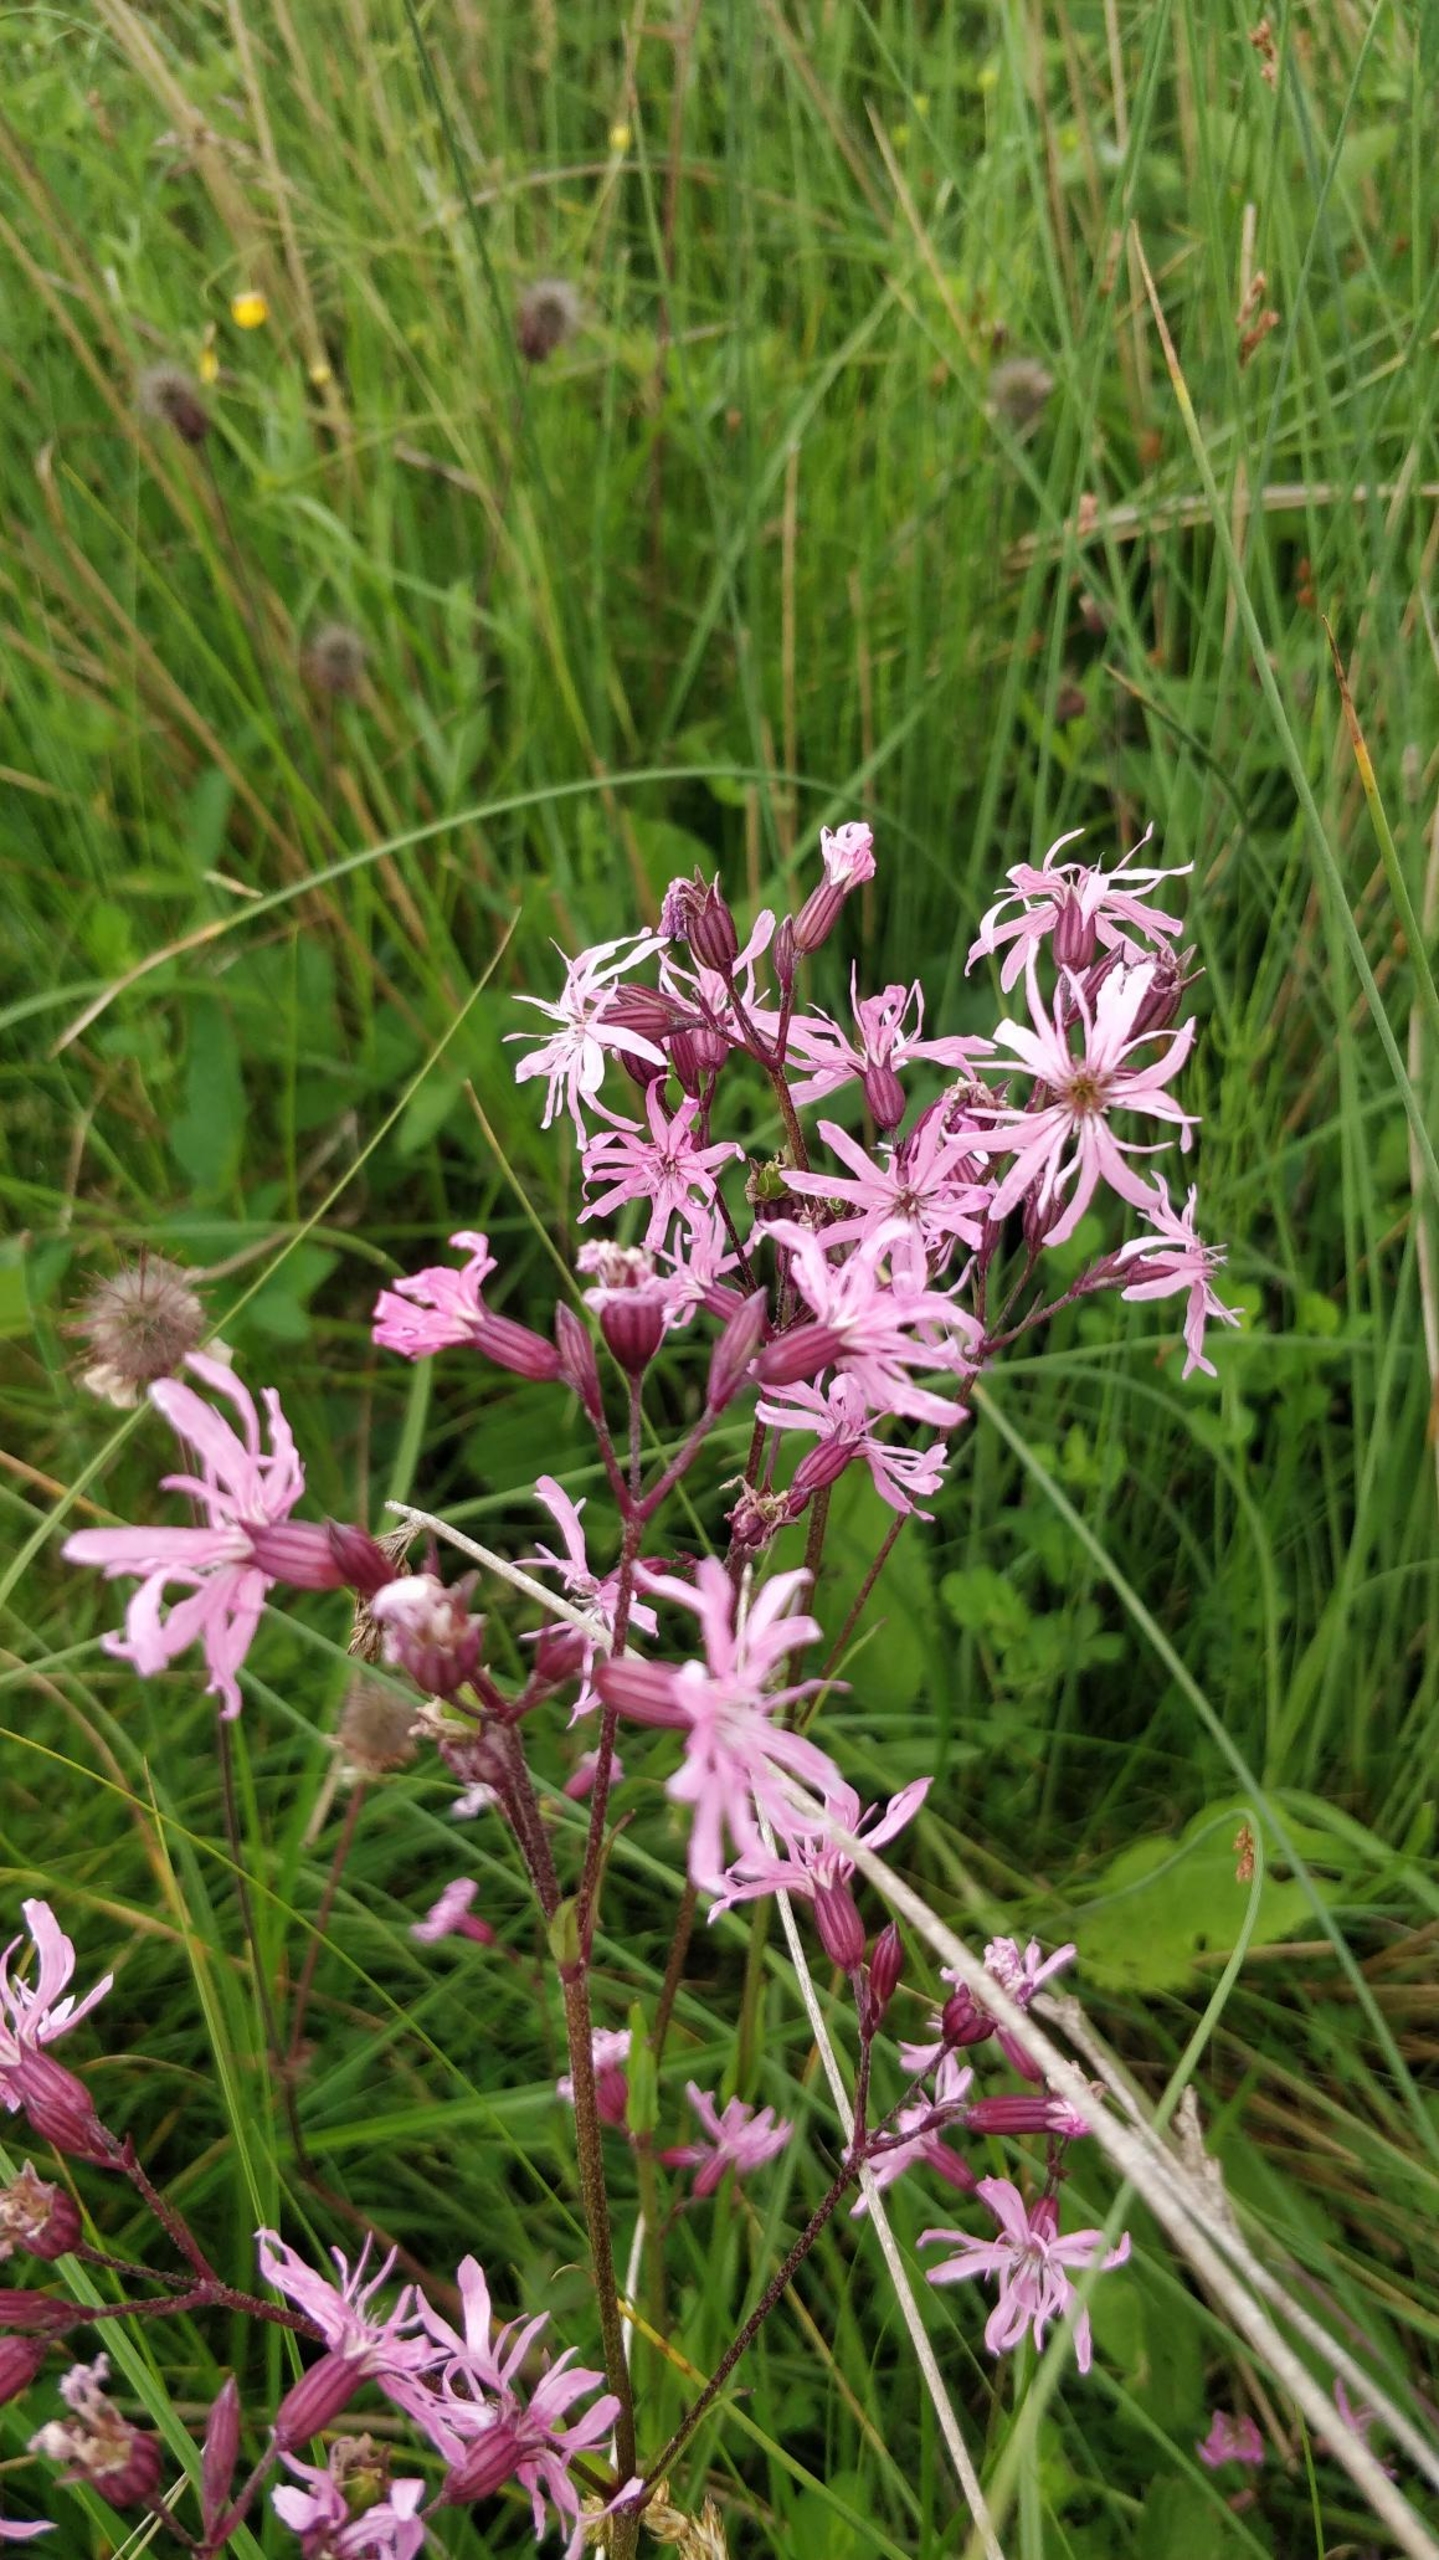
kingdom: Plantae
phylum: Tracheophyta
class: Magnoliopsida
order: Caryophyllales
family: Caryophyllaceae
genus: Silene
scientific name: Silene flos-cuculi
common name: Trævlekrone
